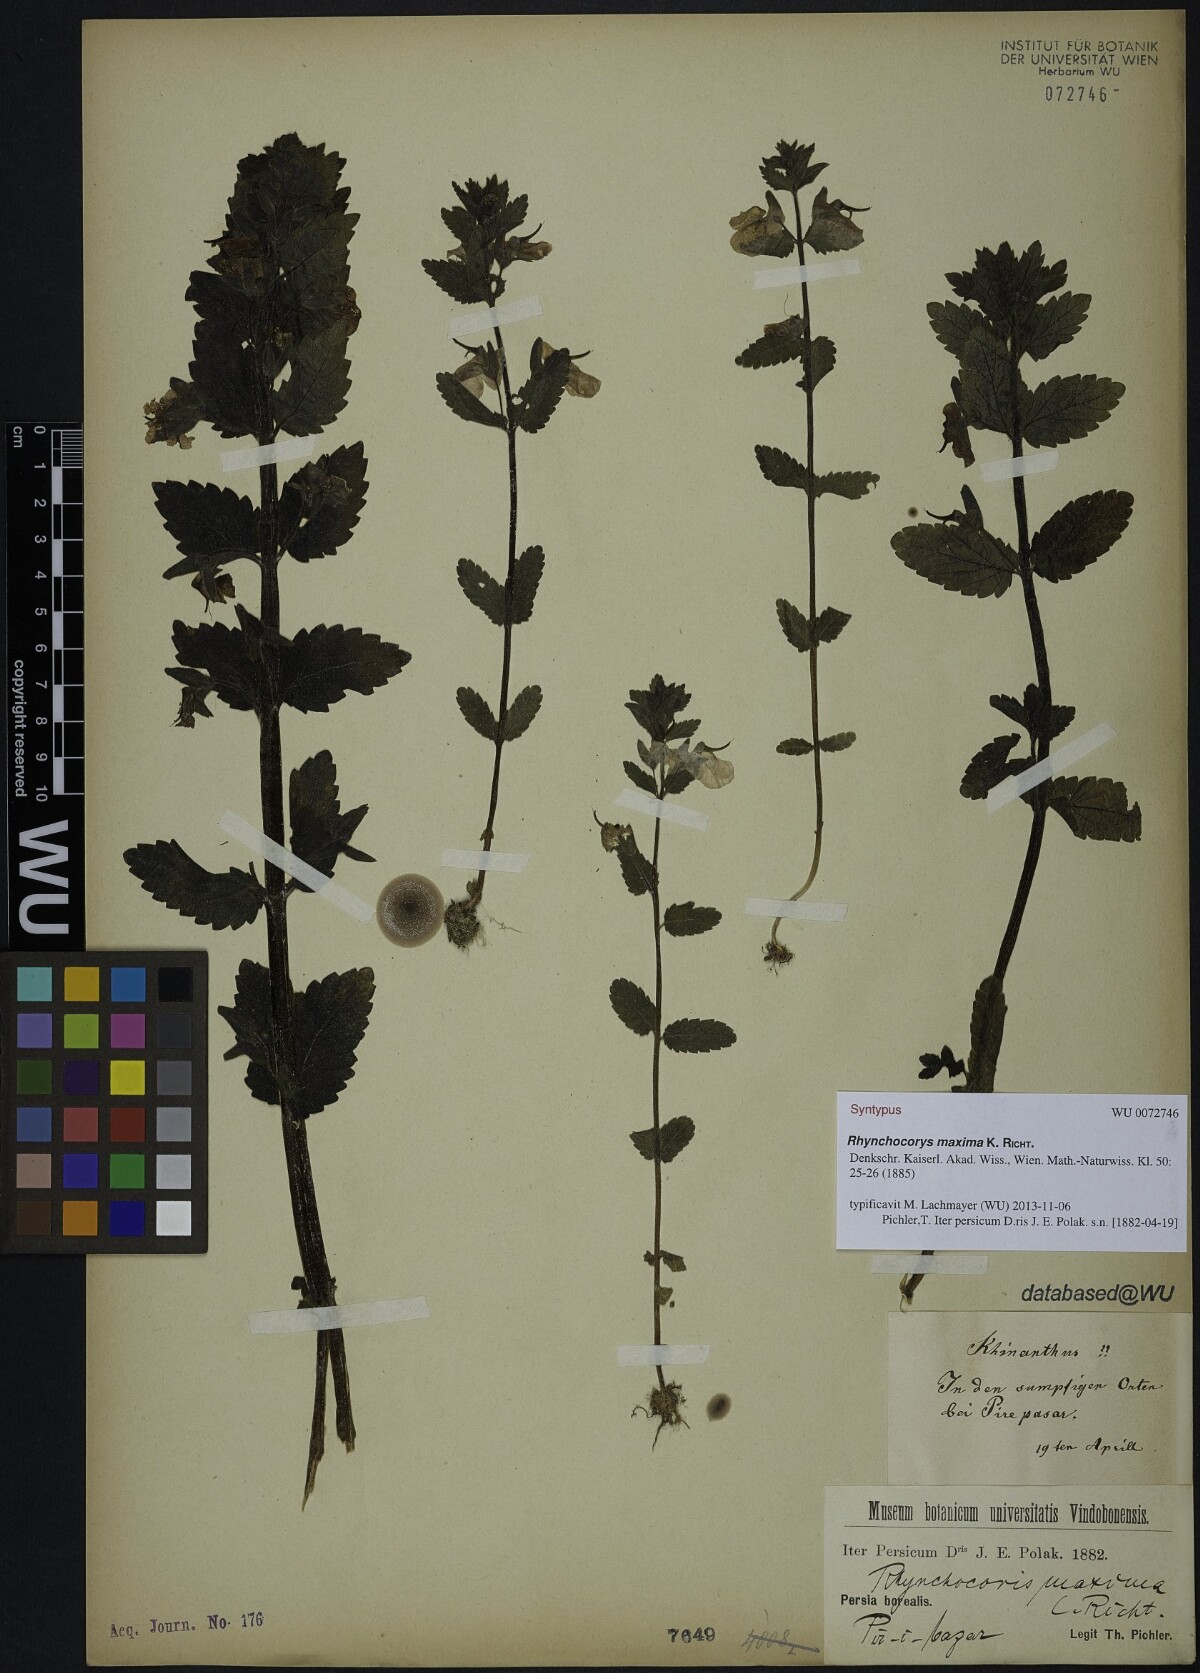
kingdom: Plantae
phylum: Tracheophyta
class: Magnoliopsida
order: Lamiales
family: Scrophulariaceae
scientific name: Scrophulariaceae
